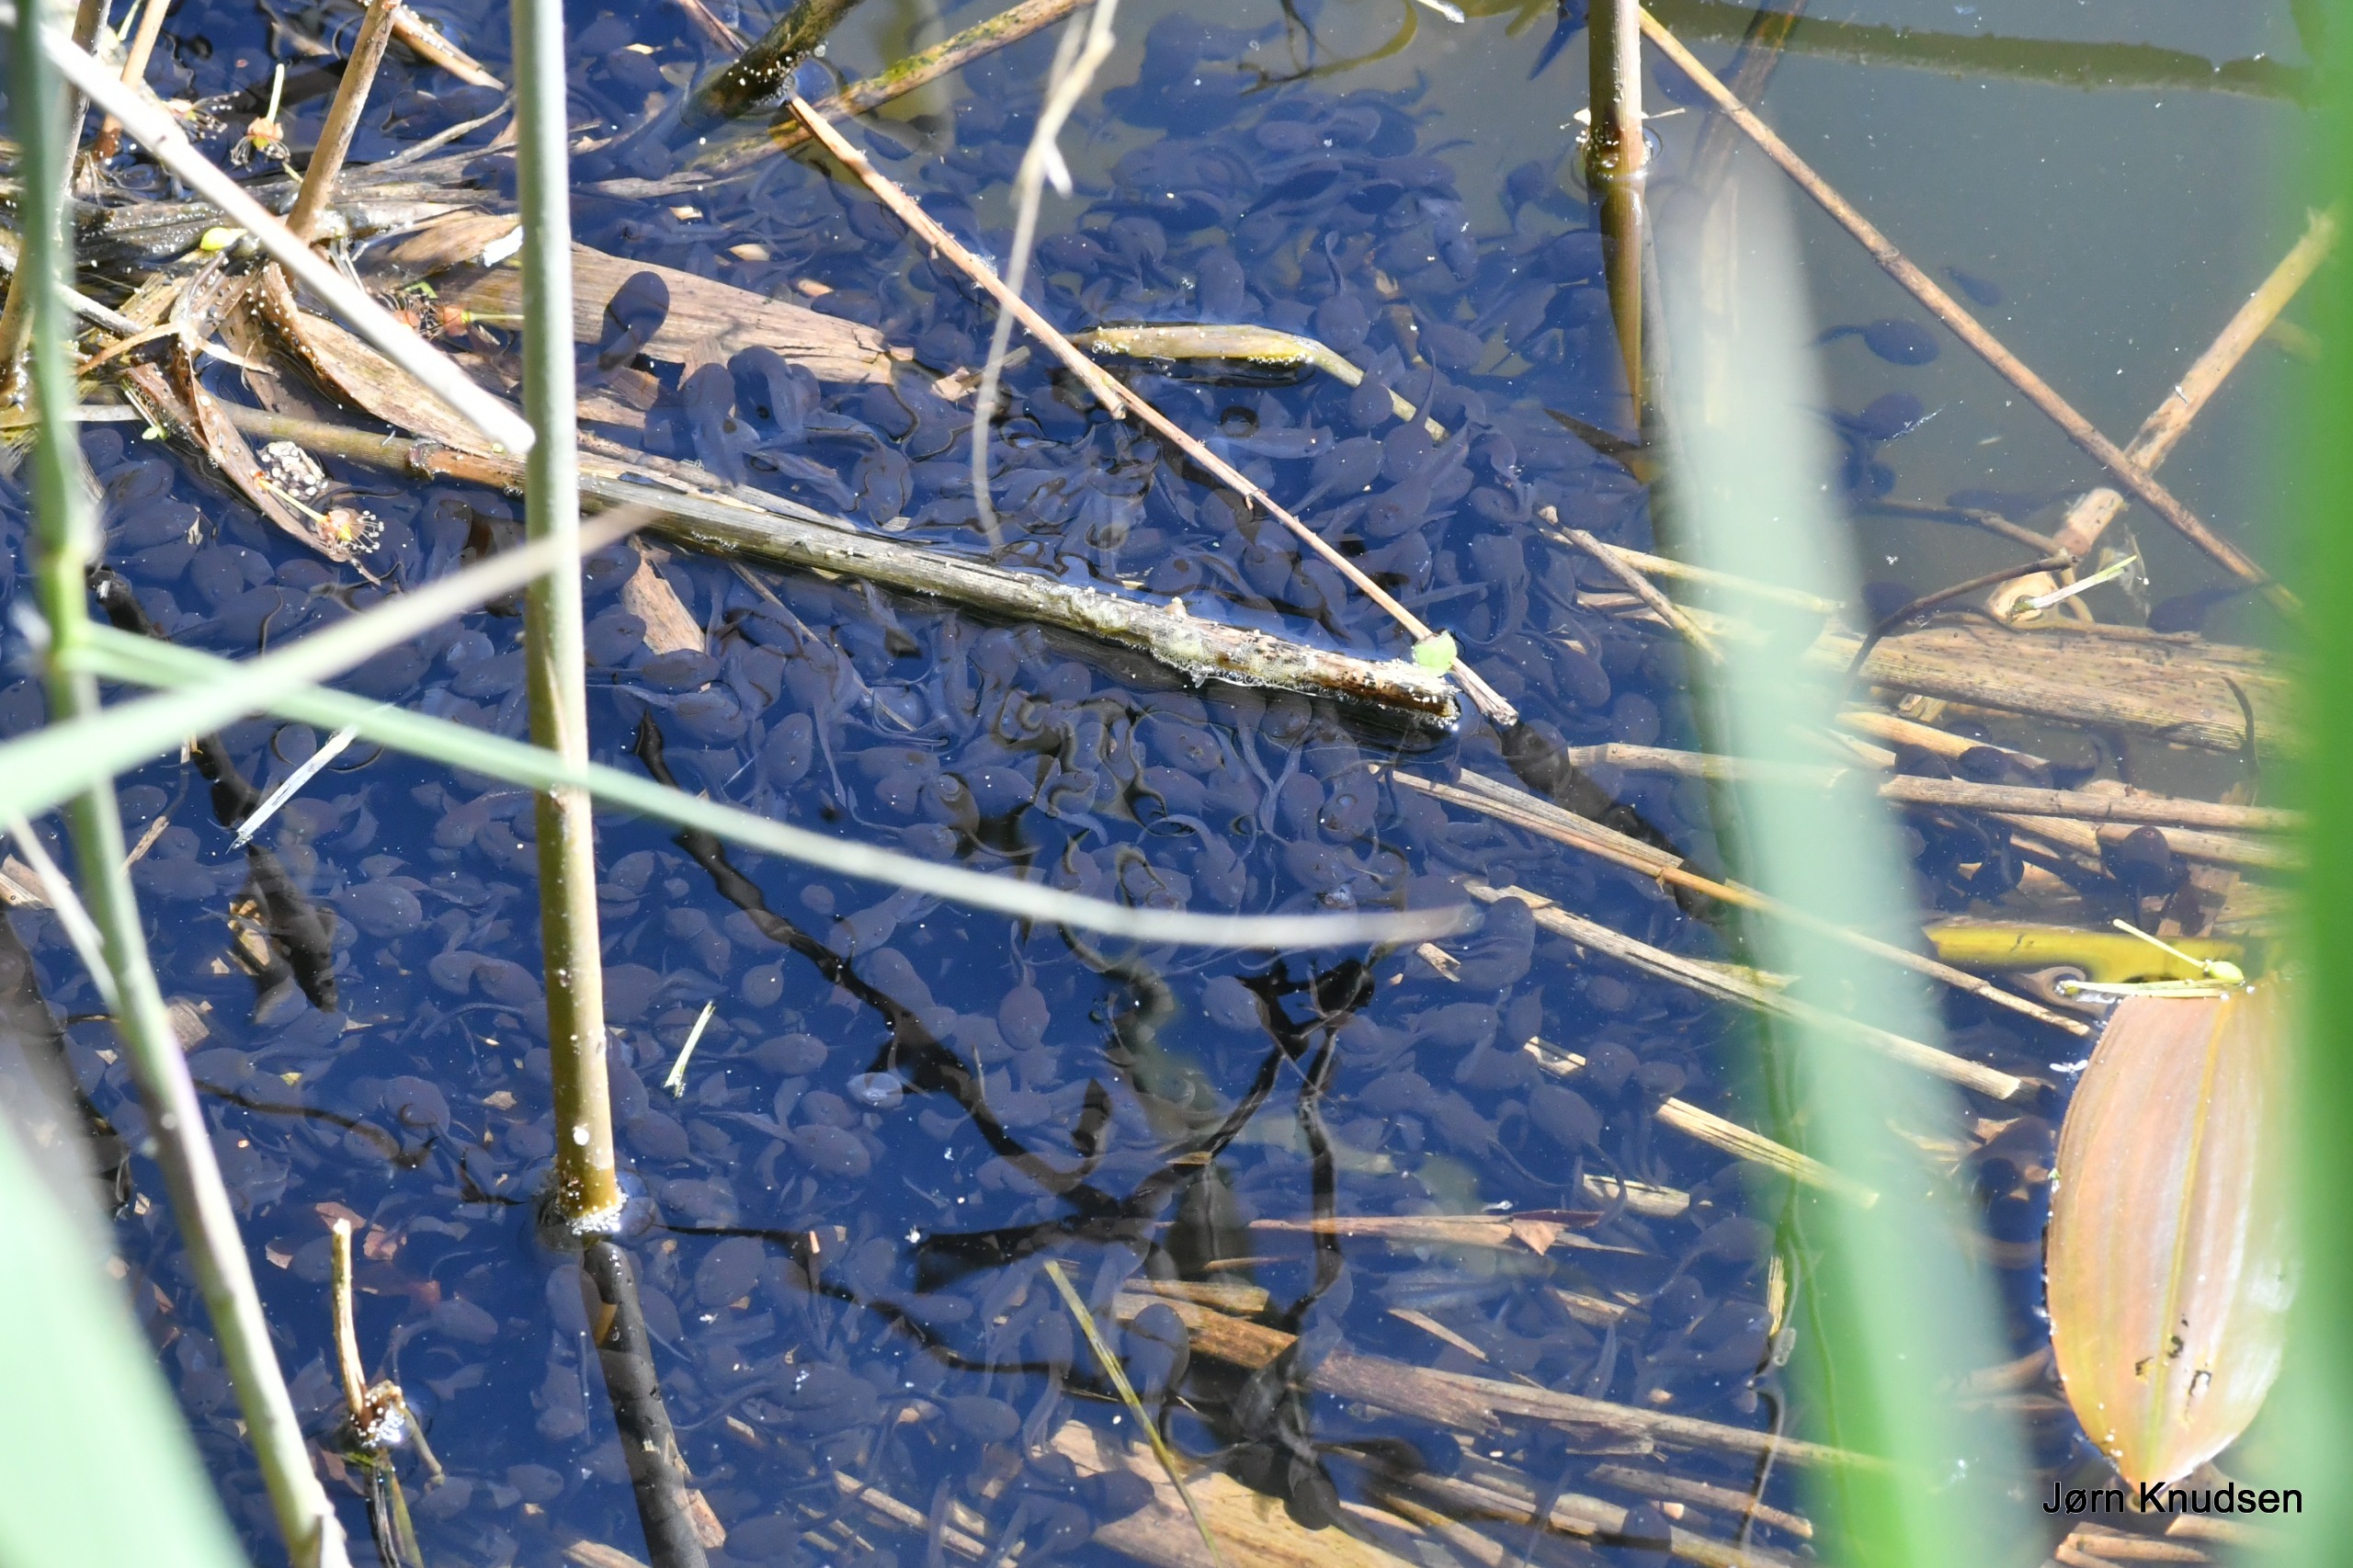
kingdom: Animalia
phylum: Chordata
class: Amphibia
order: Anura
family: Bufonidae
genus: Bufo
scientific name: Bufo bufo
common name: Skrubtudse
